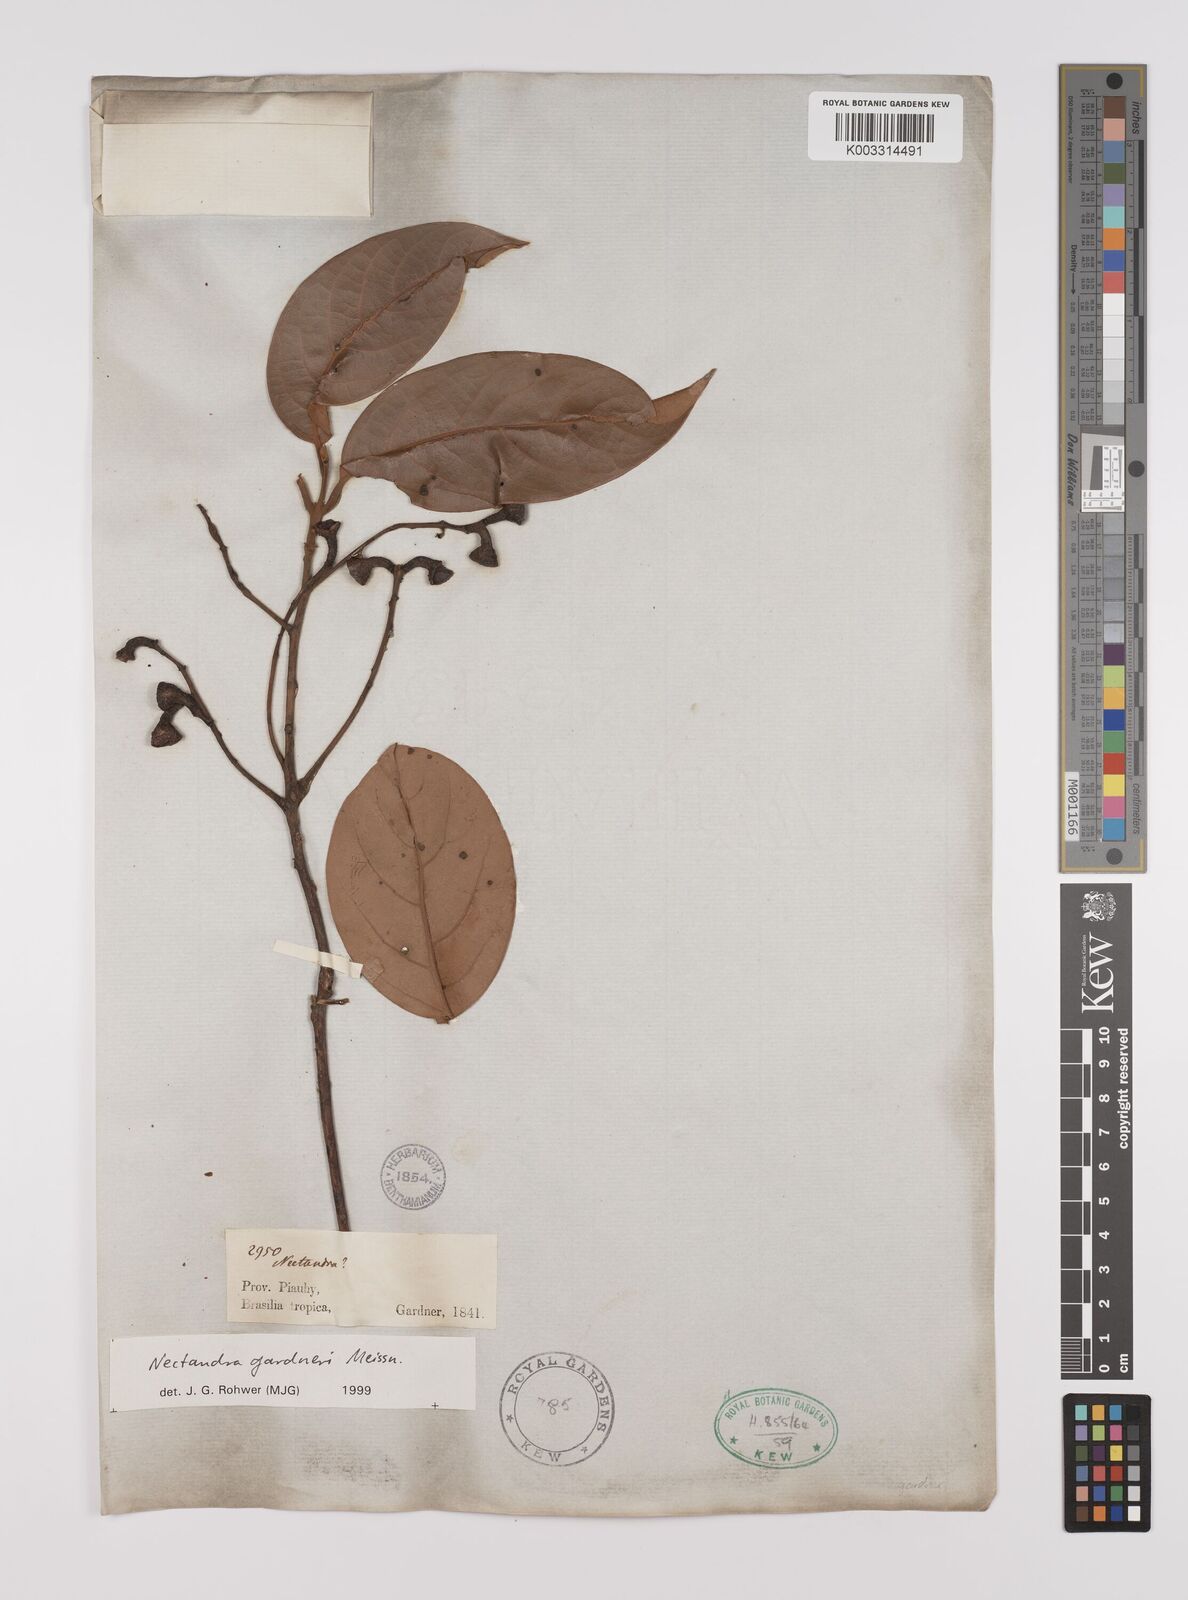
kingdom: Plantae
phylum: Tracheophyta
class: Magnoliopsida
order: Laurales
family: Lauraceae
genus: Nectandra
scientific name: Nectandra gardneri
